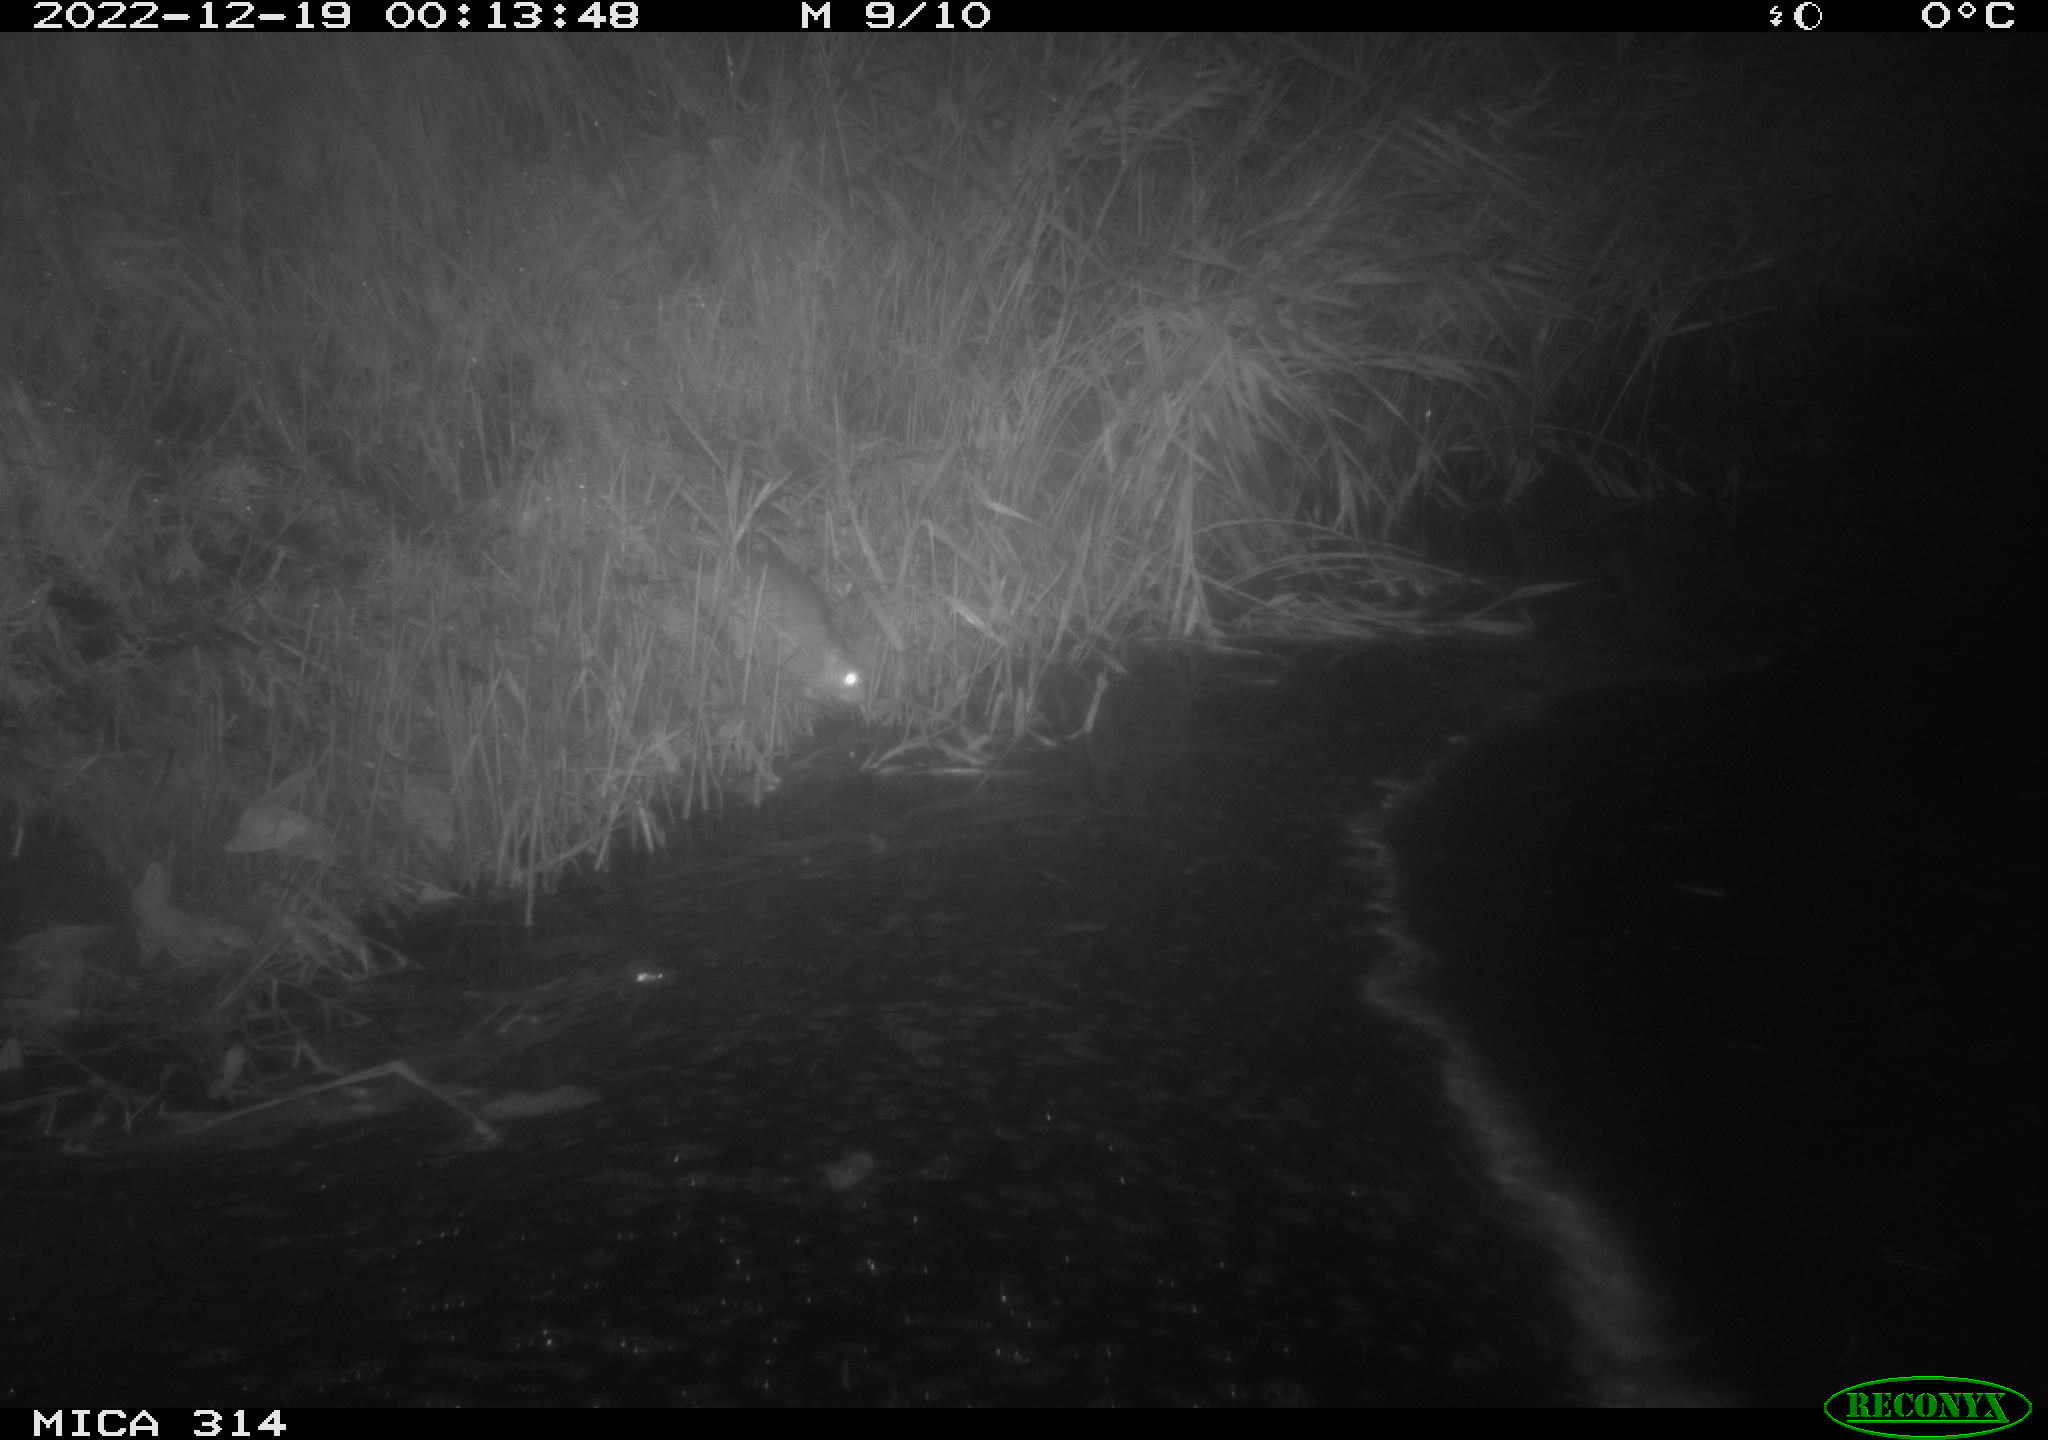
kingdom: Animalia
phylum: Chordata
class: Mammalia
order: Rodentia
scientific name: Rodentia
